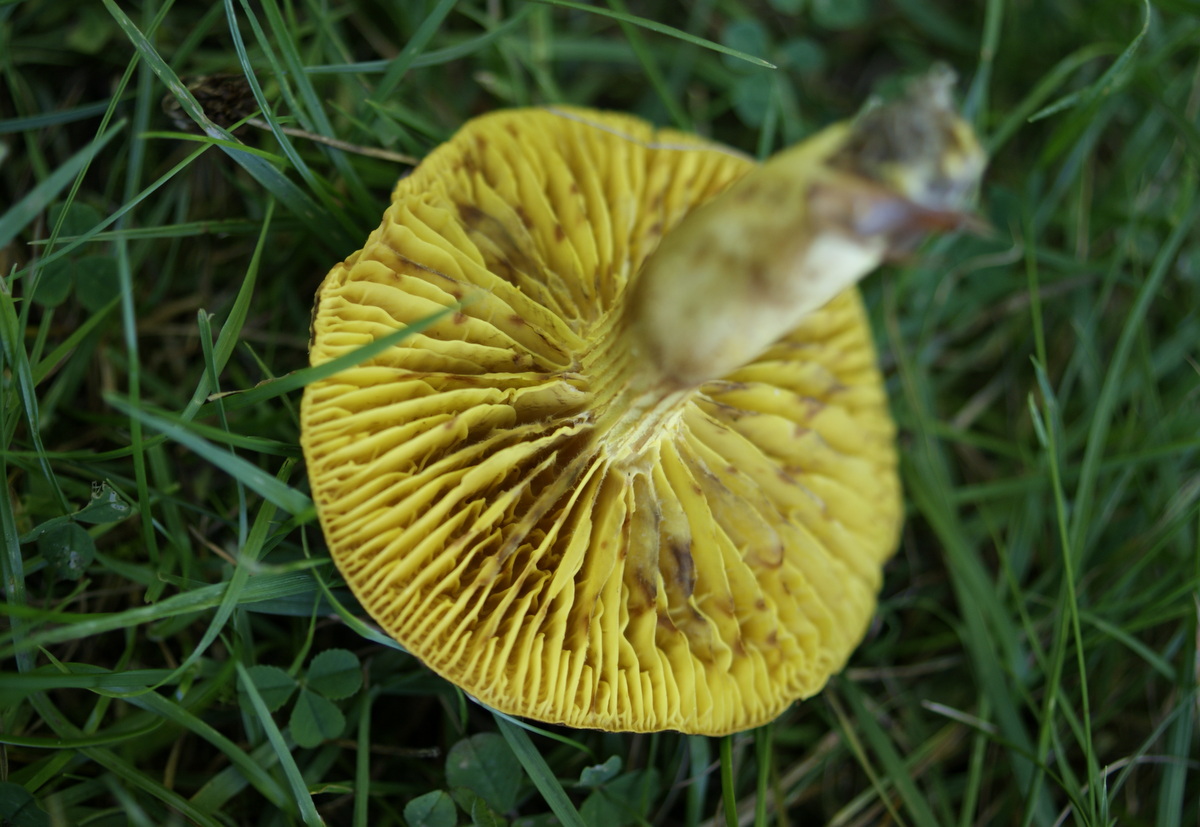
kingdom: Fungi
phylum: Basidiomycota
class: Agaricomycetes
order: Boletales
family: Boletaceae
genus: Phylloporus
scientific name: Phylloporus pelletieri
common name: lamelrørhat
